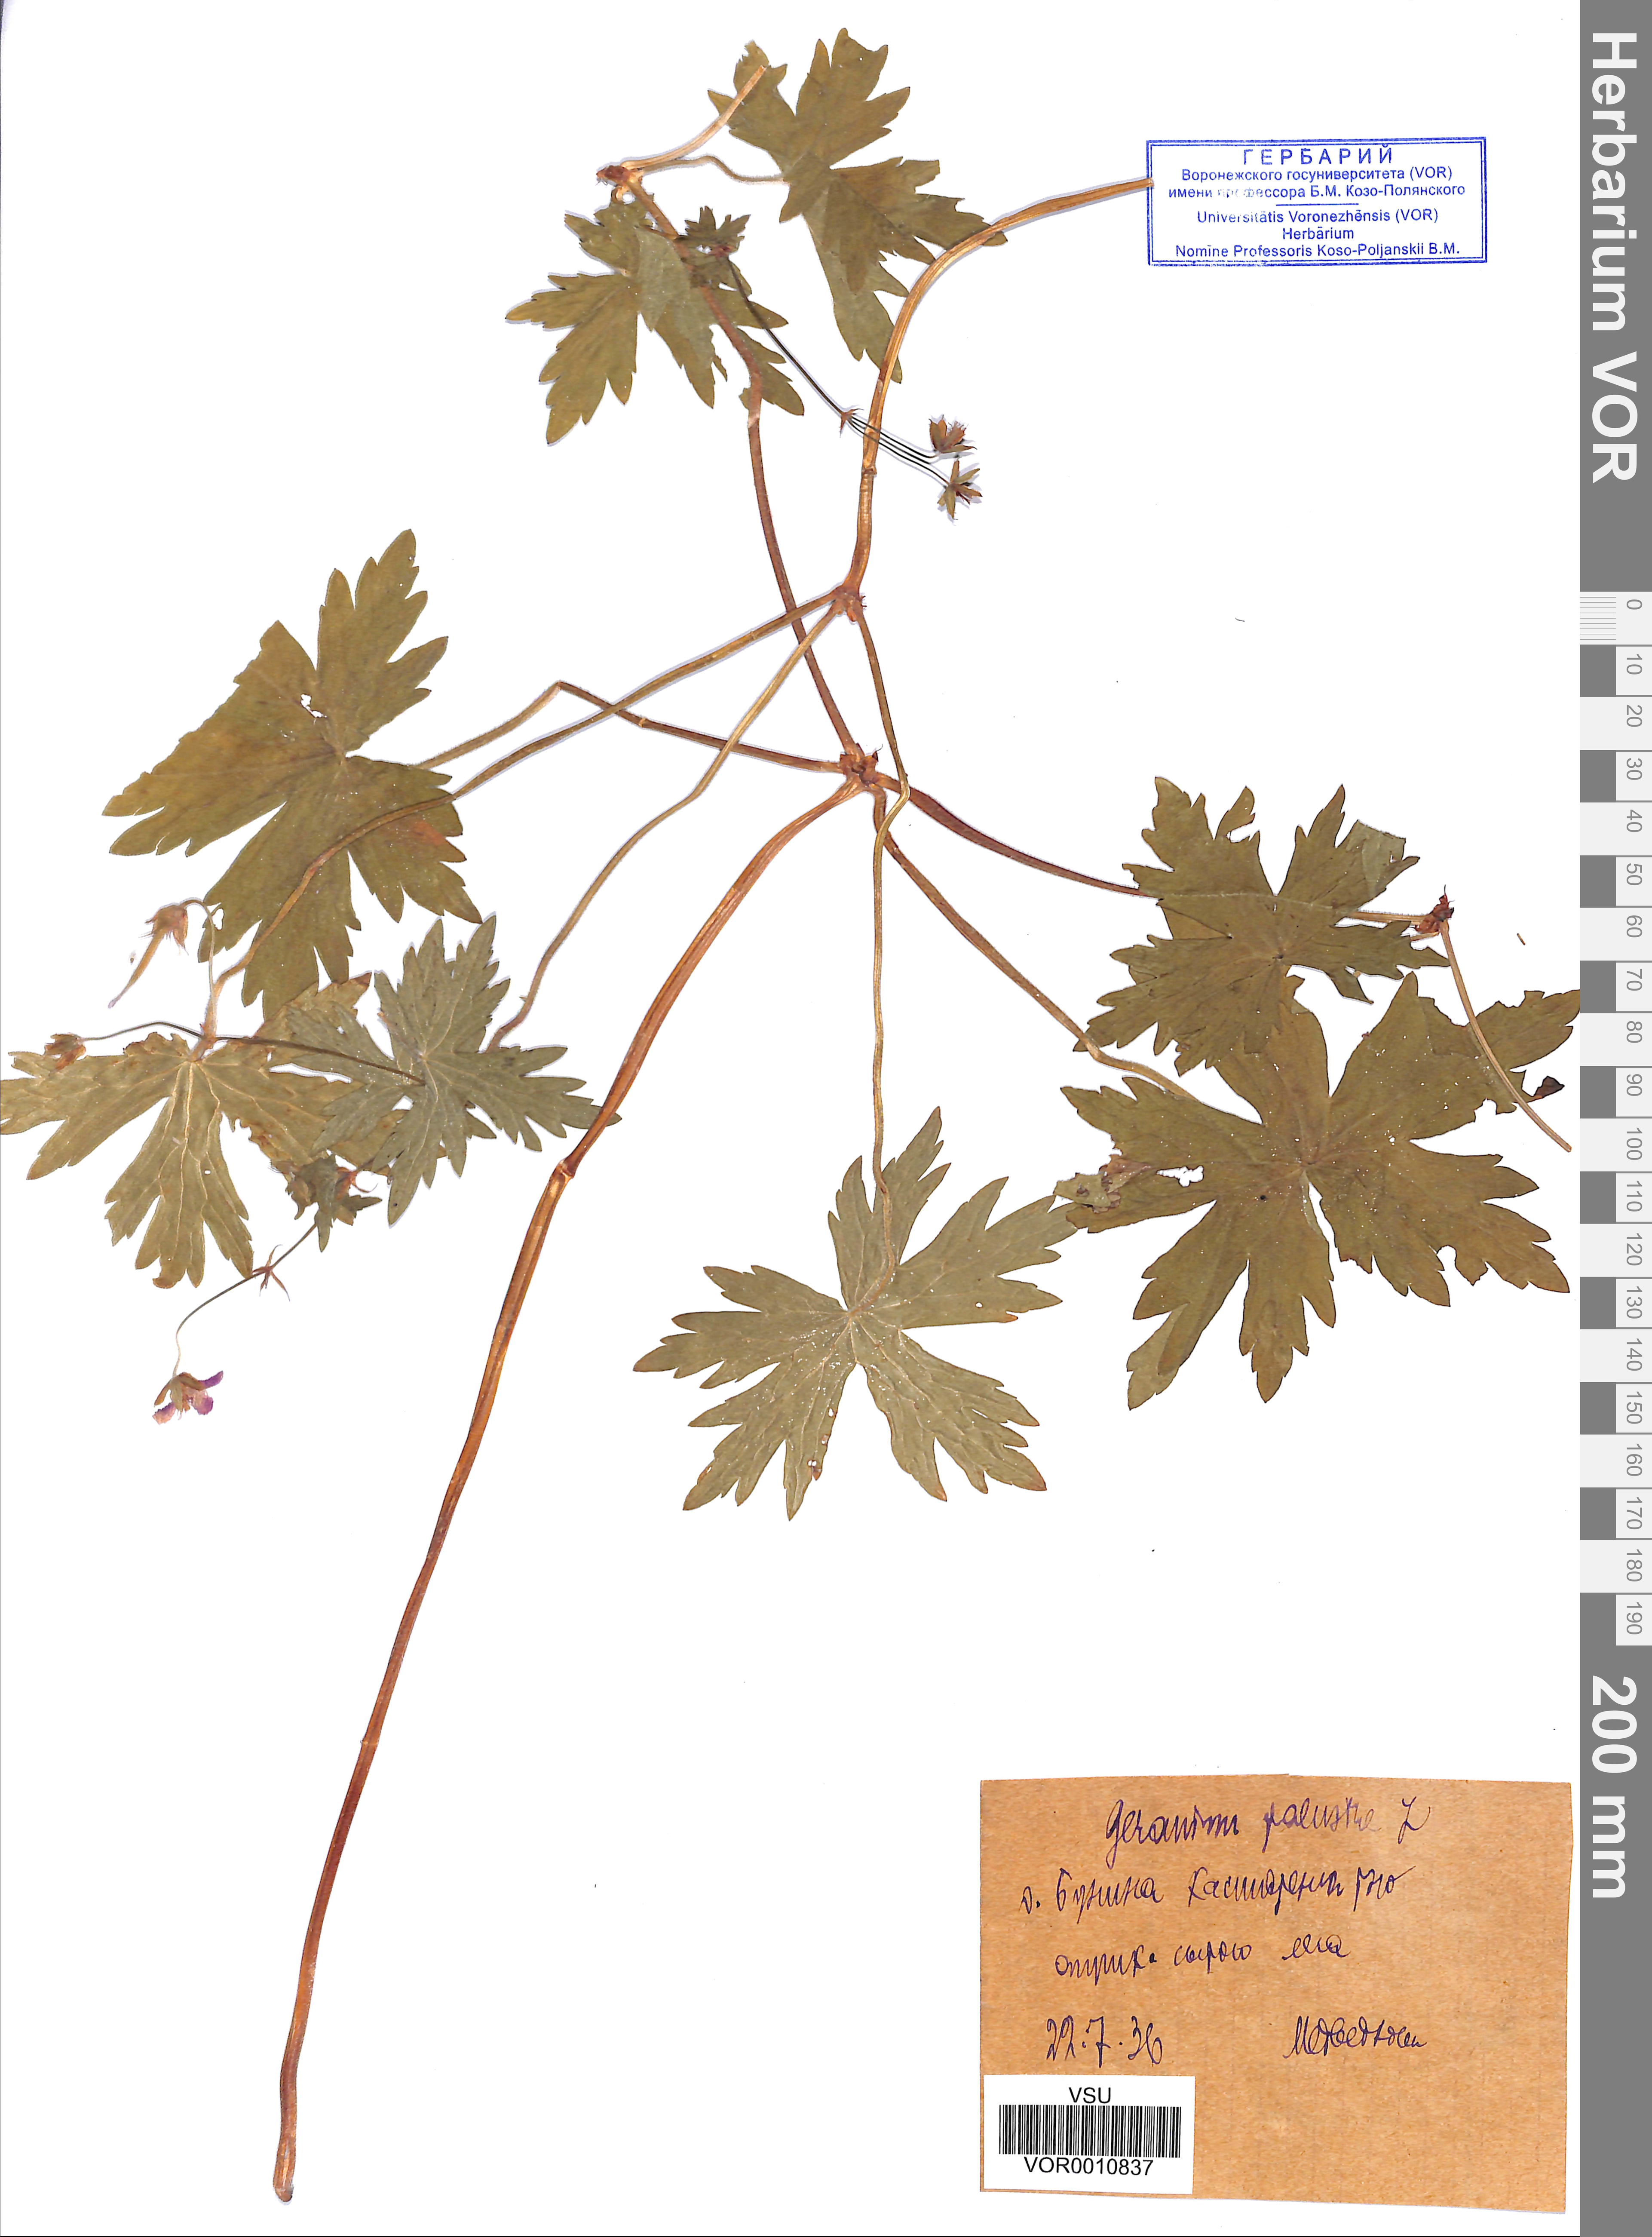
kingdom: Plantae
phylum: Tracheophyta
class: Magnoliopsida
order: Geraniales
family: Geraniaceae
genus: Geranium
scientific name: Geranium palustre
